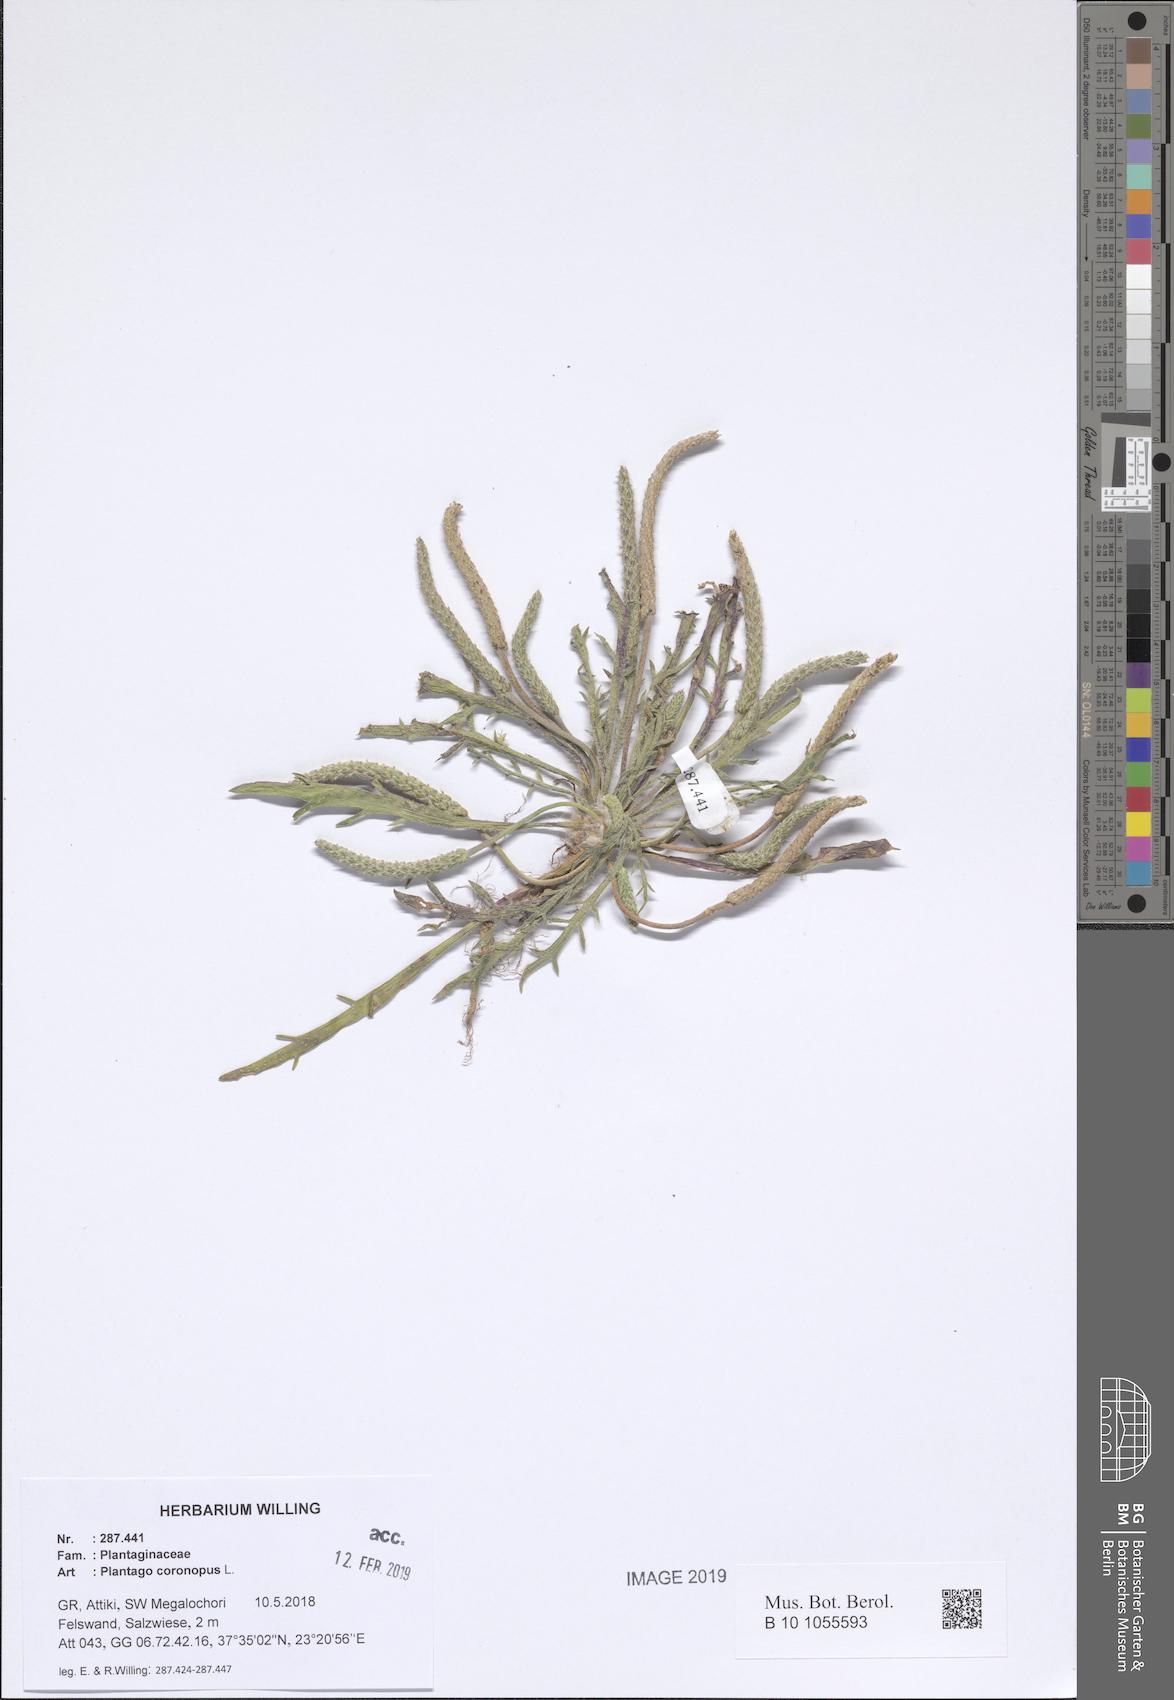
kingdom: Plantae
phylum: Tracheophyta
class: Magnoliopsida
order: Lamiales
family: Plantaginaceae
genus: Plantago
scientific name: Plantago coronopus
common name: Buck's-horn plantain
